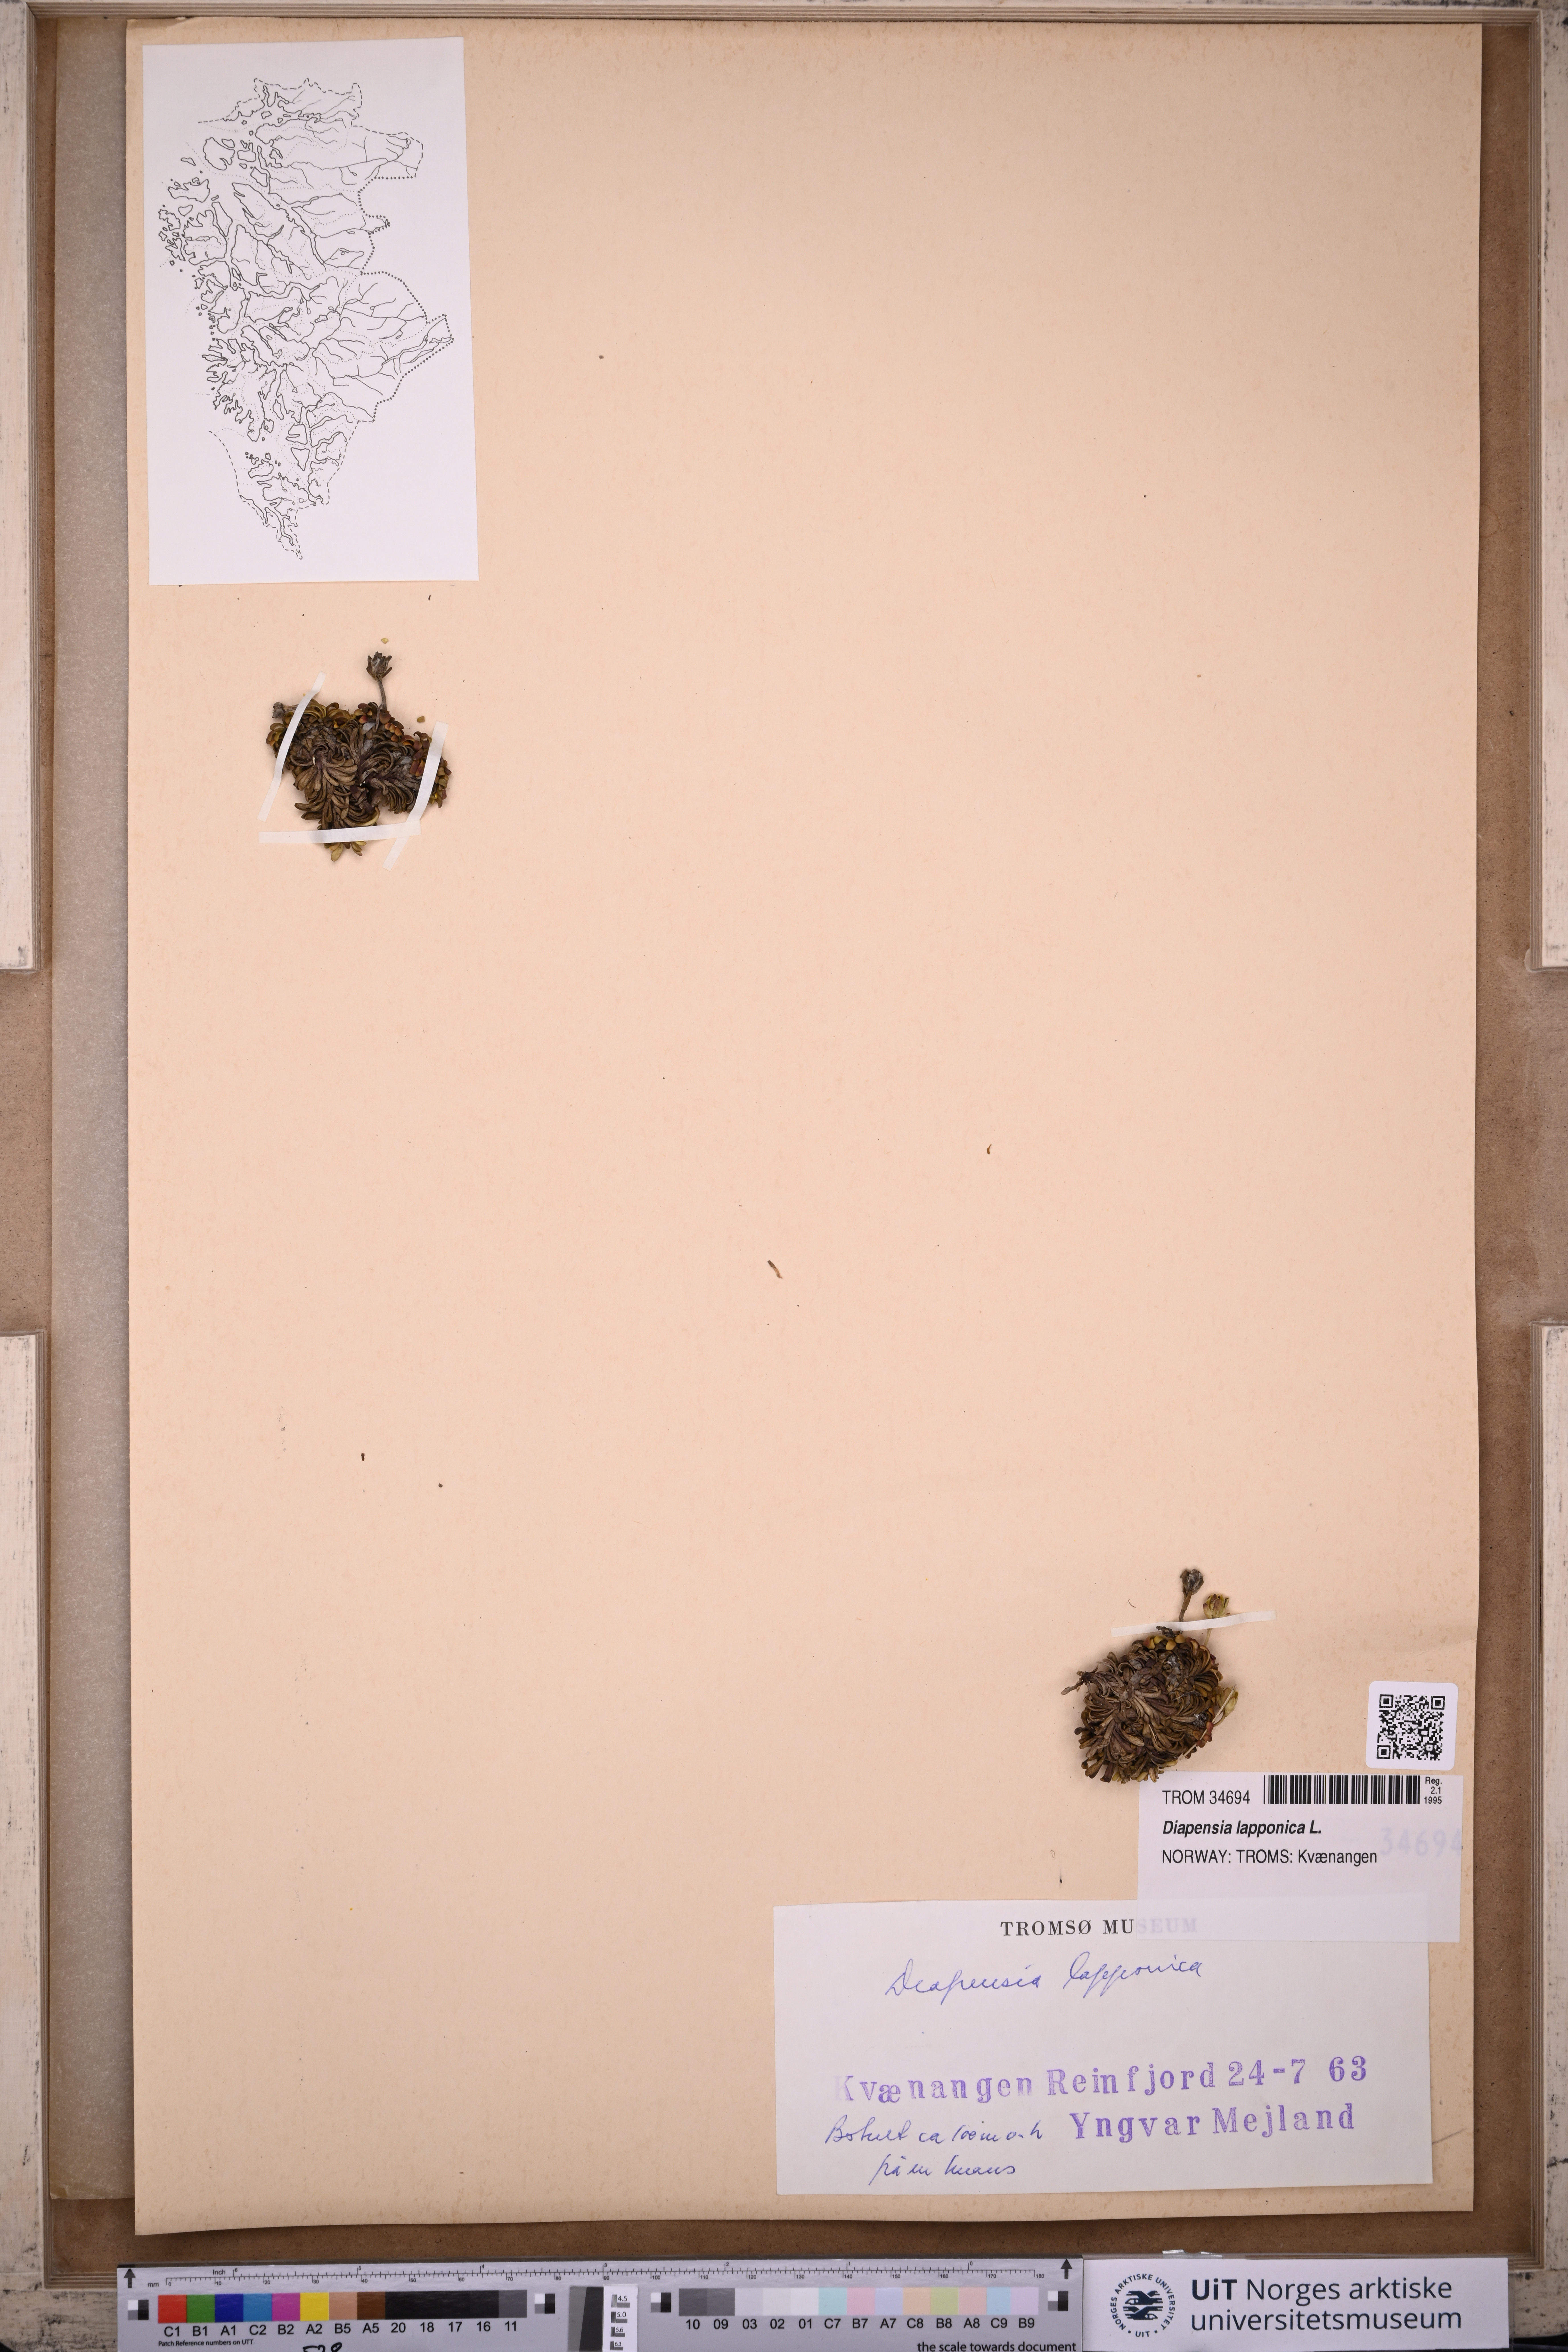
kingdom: Plantae
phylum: Tracheophyta
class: Magnoliopsida
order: Ericales
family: Diapensiaceae
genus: Diapensia
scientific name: Diapensia lapponica
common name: Diapensia
